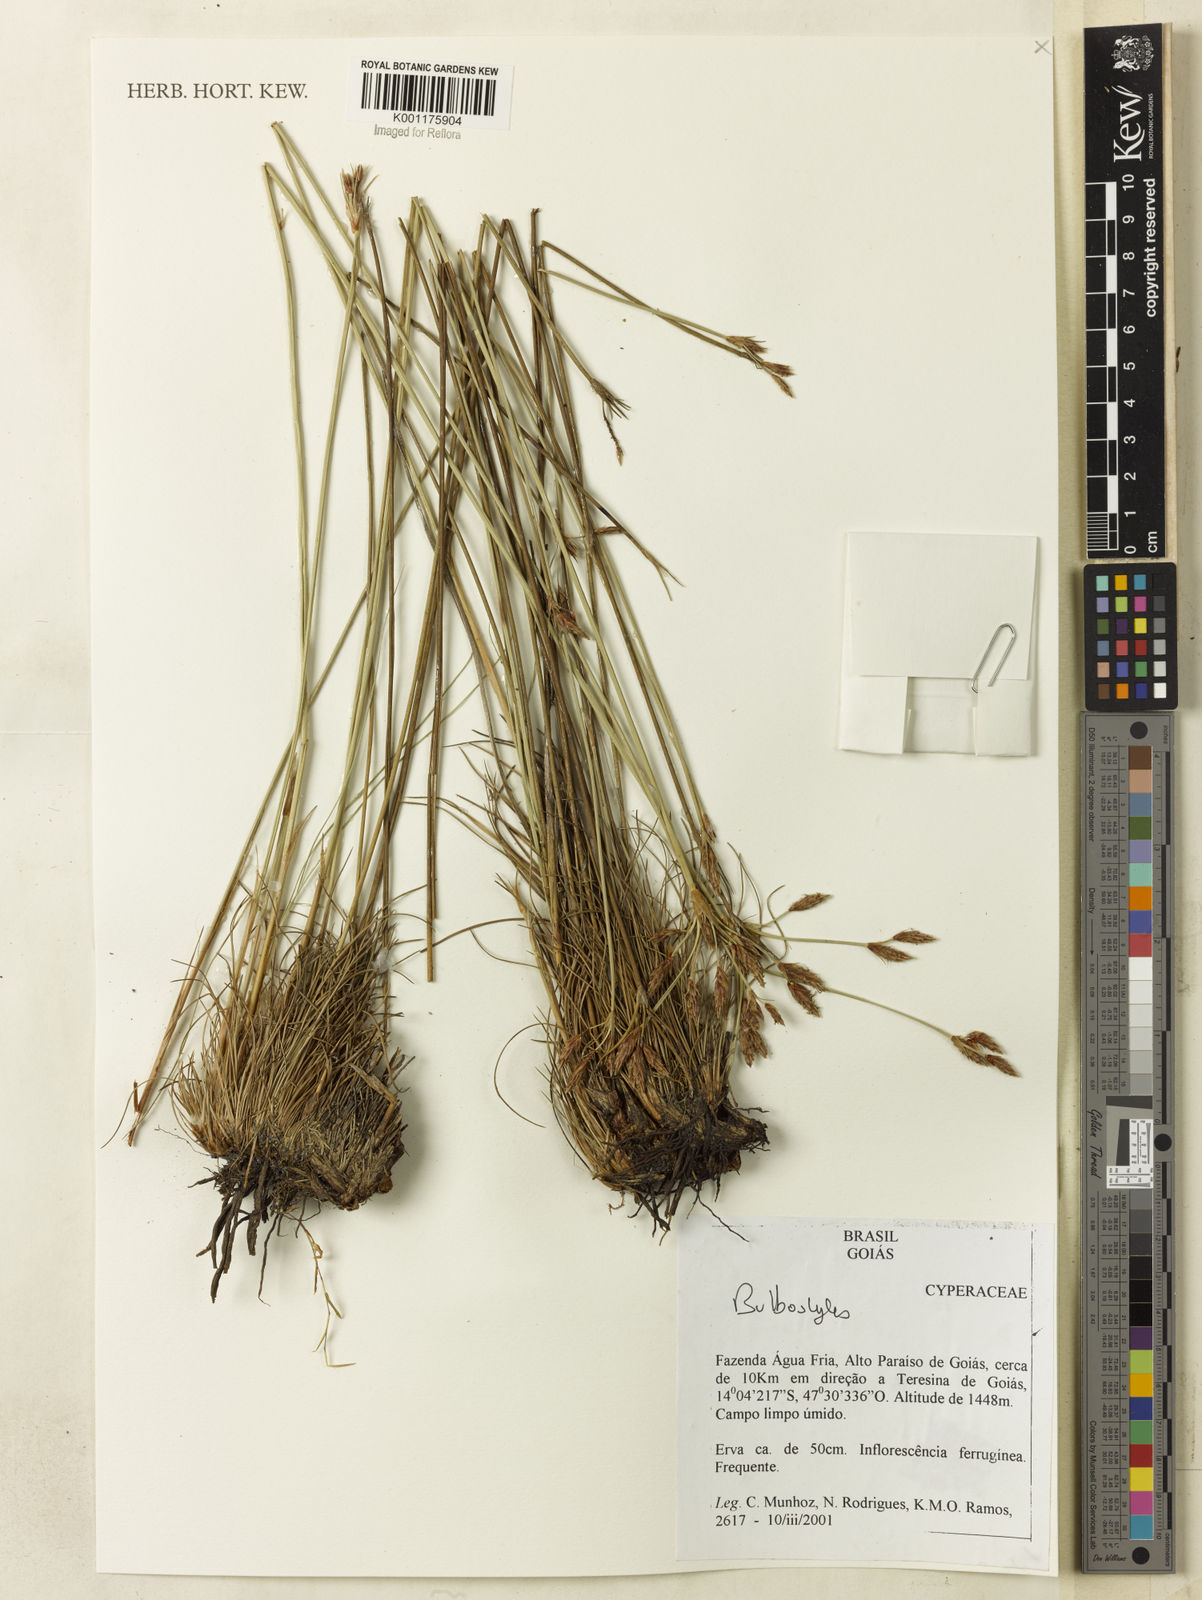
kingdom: Plantae
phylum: Tracheophyta
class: Liliopsida
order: Poales
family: Cyperaceae
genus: Bulbostylis
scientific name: Bulbostylis
